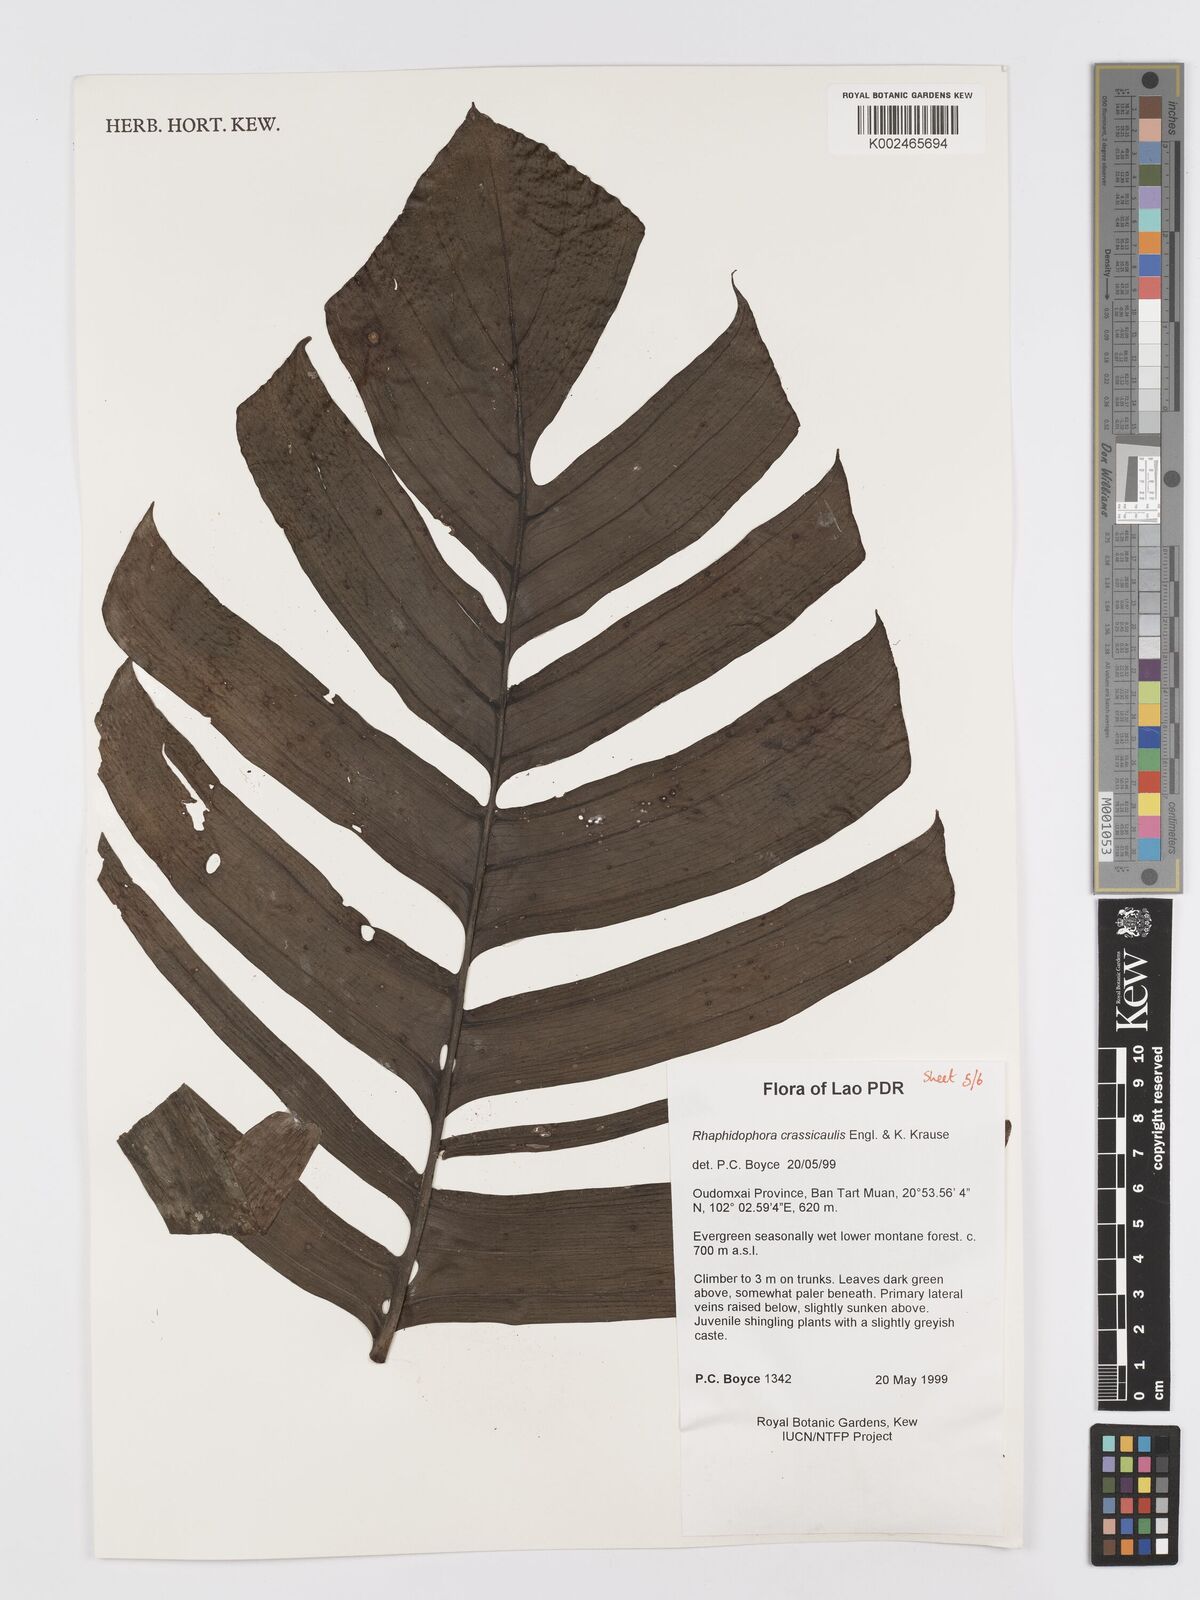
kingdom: Plantae
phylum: Tracheophyta
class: Liliopsida
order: Alismatales
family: Araceae
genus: Rhaphidophora
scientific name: Rhaphidophora crassicaulis
